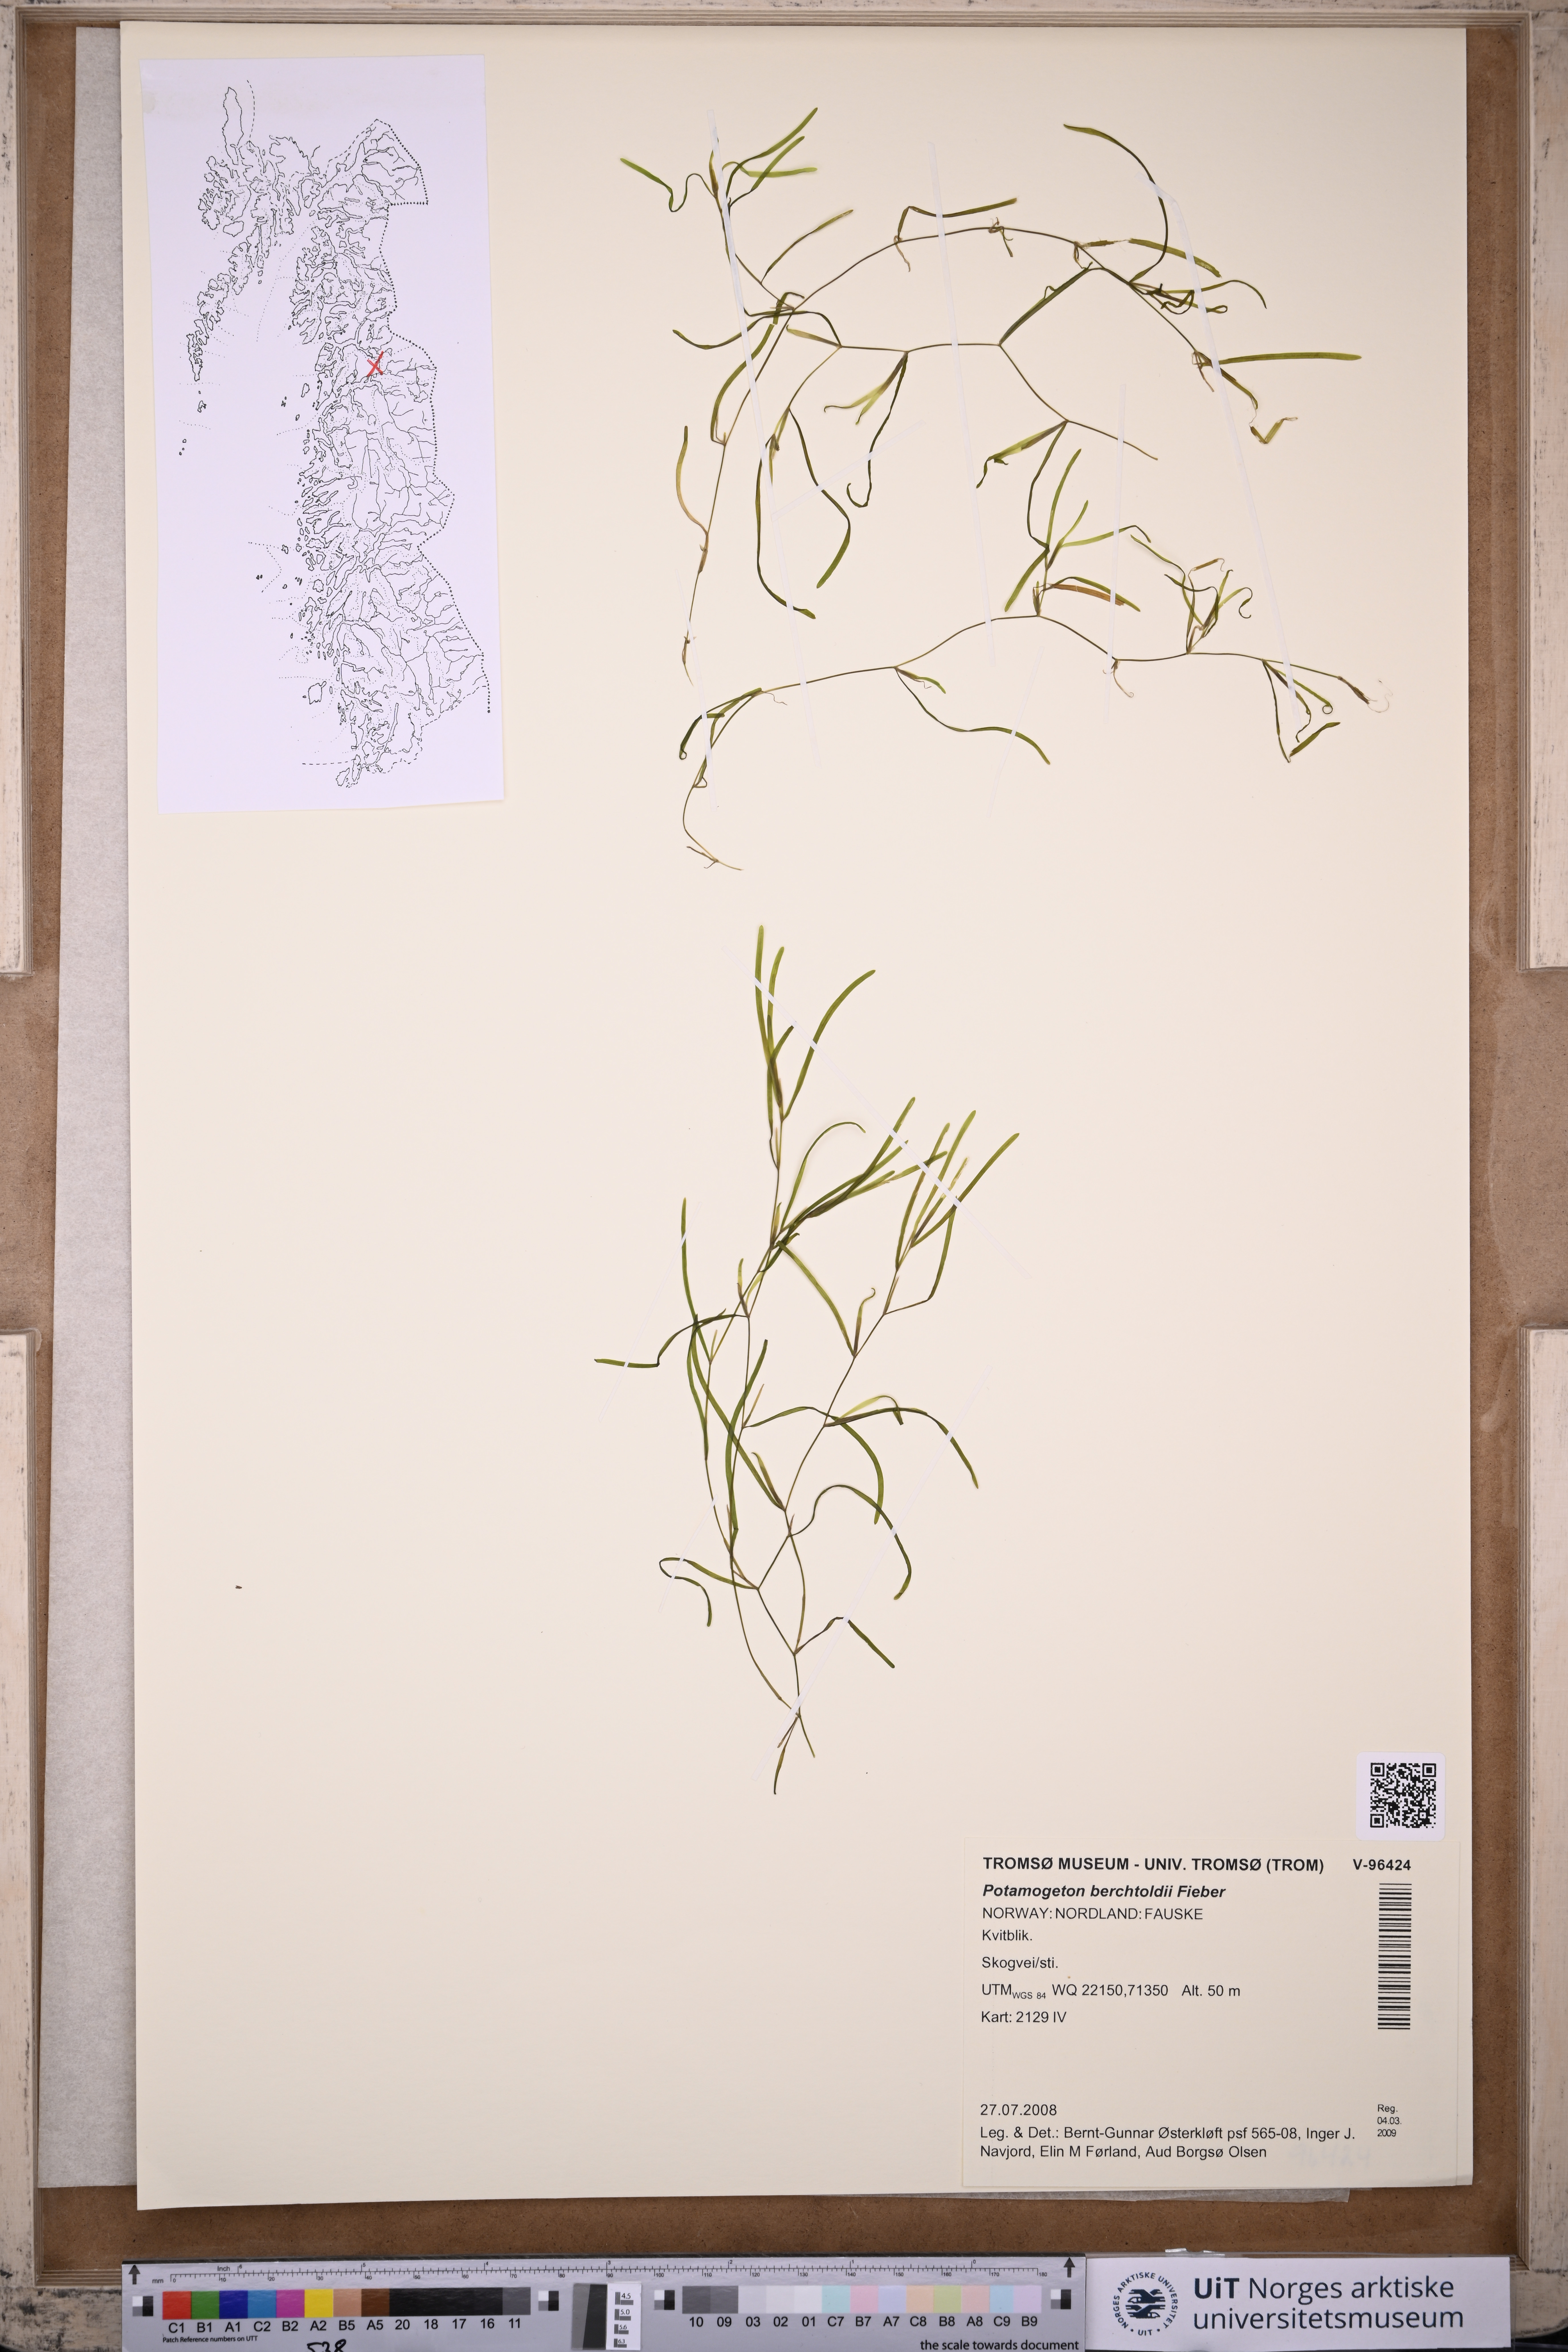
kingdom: Plantae
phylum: Tracheophyta
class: Liliopsida
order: Alismatales
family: Potamogetonaceae
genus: Potamogeton
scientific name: Potamogeton berchtoldii
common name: Small pondweed
